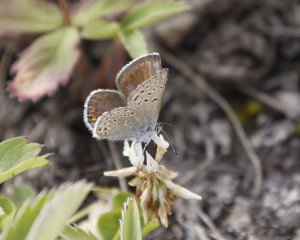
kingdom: Animalia
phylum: Arthropoda
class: Insecta
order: Lepidoptera
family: Lycaenidae
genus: Plebejus
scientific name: Plebejus saepiolus
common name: Greenish Blue
